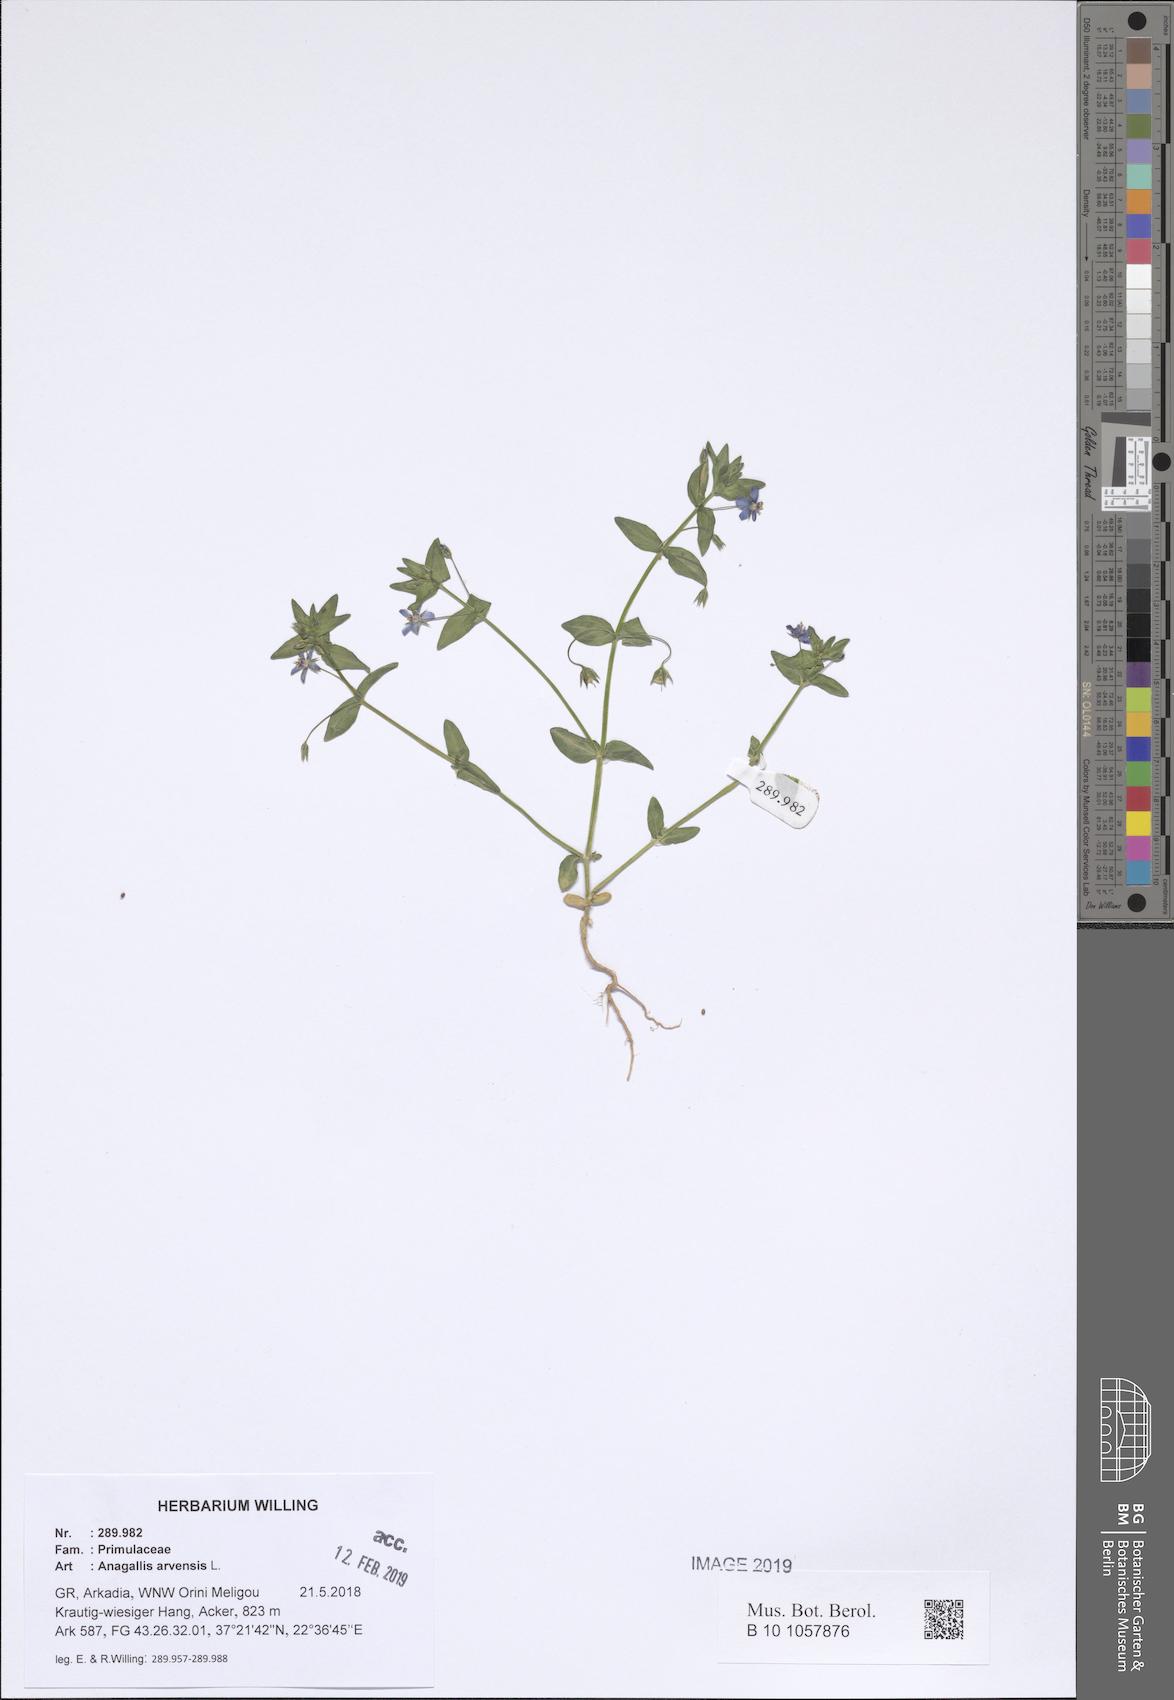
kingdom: Plantae
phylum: Tracheophyta
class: Magnoliopsida
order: Ericales
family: Primulaceae
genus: Lysimachia
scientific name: Lysimachia arvensis
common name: Scarlet pimpernel
